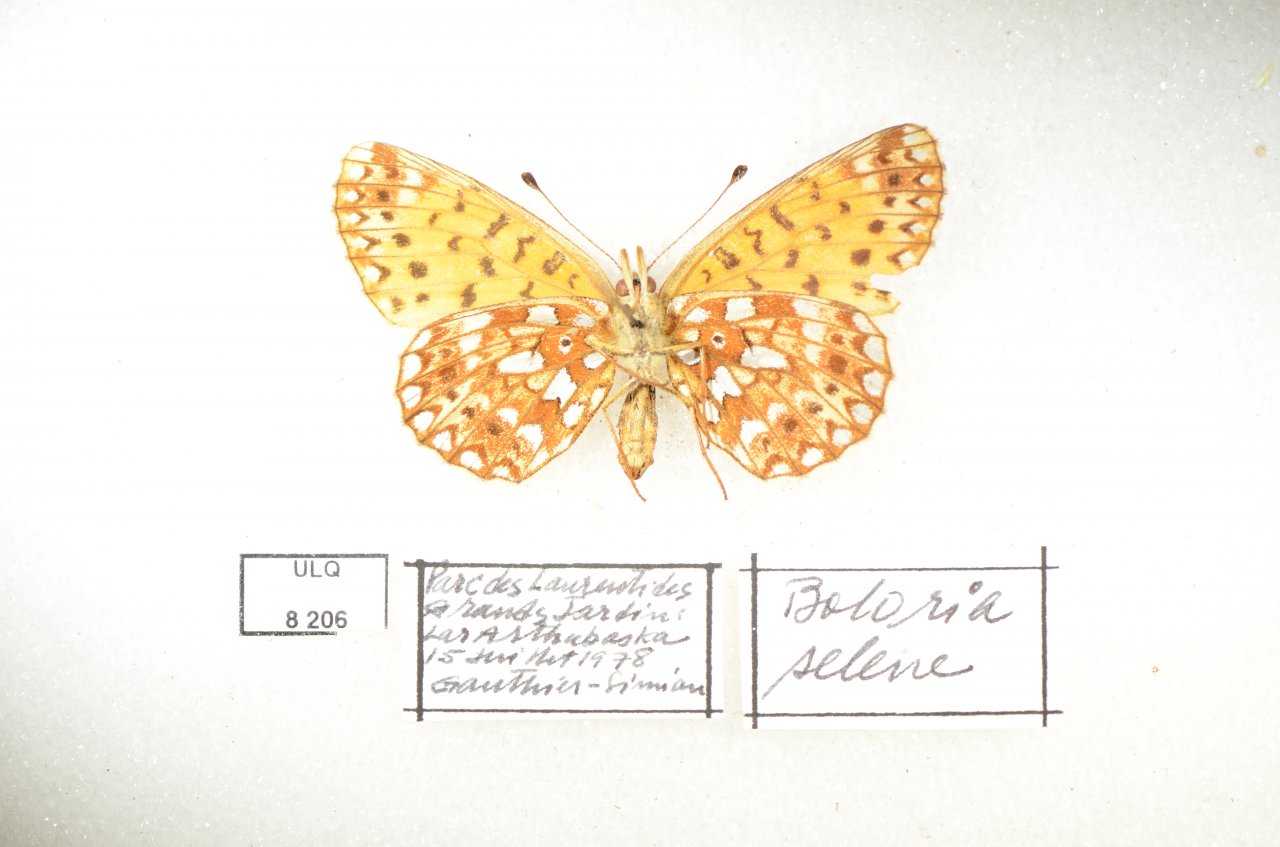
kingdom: Animalia
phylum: Arthropoda
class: Insecta
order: Lepidoptera
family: Nymphalidae
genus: Boloria
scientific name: Boloria selene
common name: Silver-bordered Fritillary
